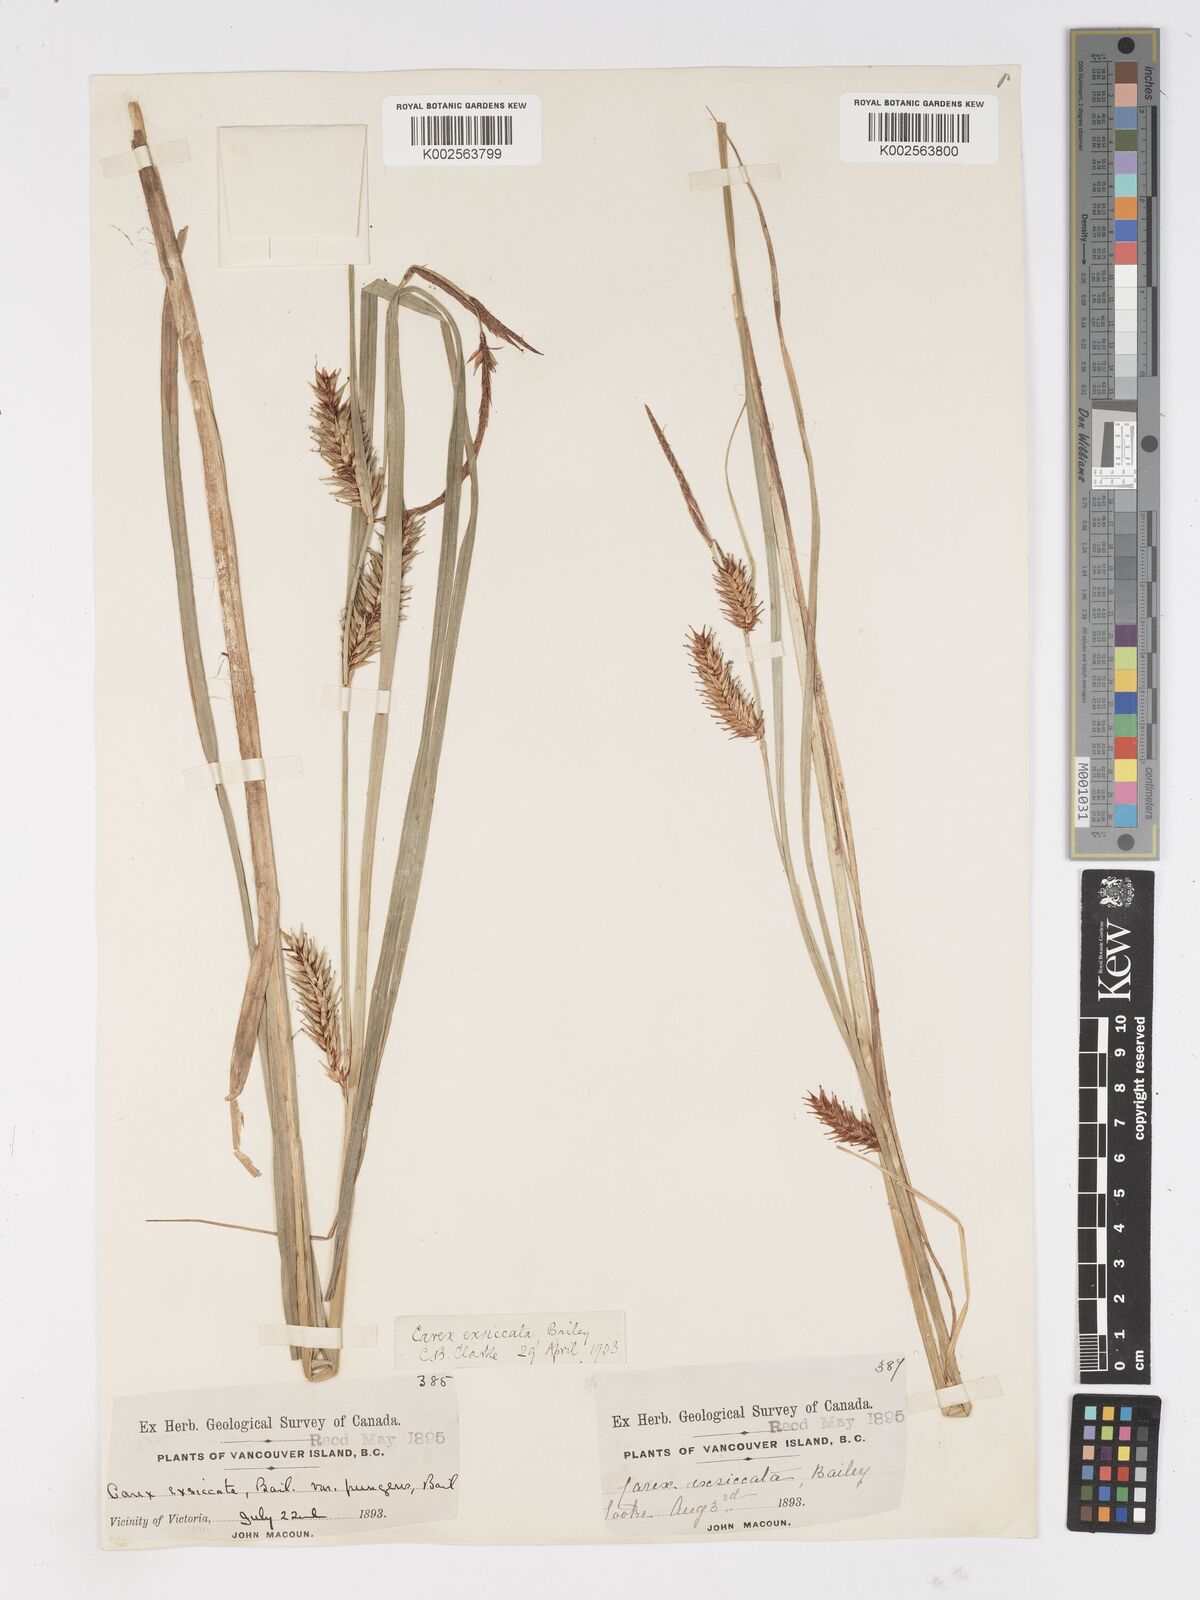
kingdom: Plantae
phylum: Tracheophyta
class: Liliopsida
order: Poales
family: Cyperaceae
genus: Carex
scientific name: Carex exsiccata
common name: Beaked sedge
